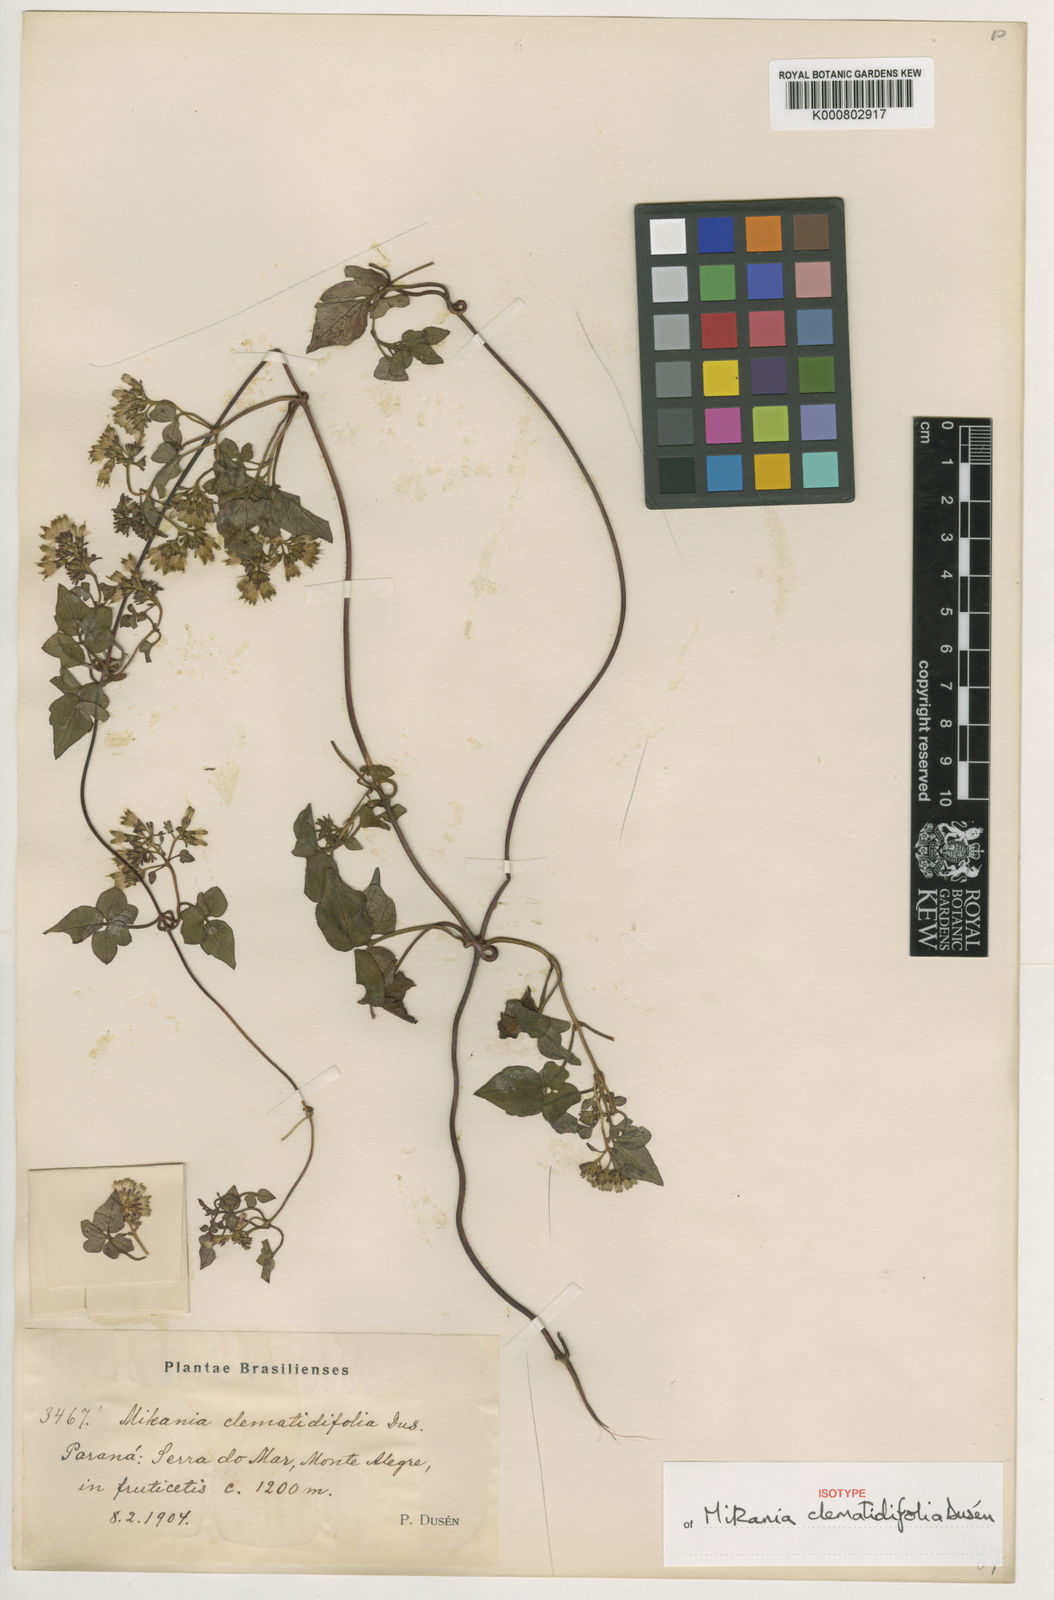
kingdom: Plantae
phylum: Tracheophyta
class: Magnoliopsida
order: Asterales
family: Asteraceae
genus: Mikania
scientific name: Mikania
